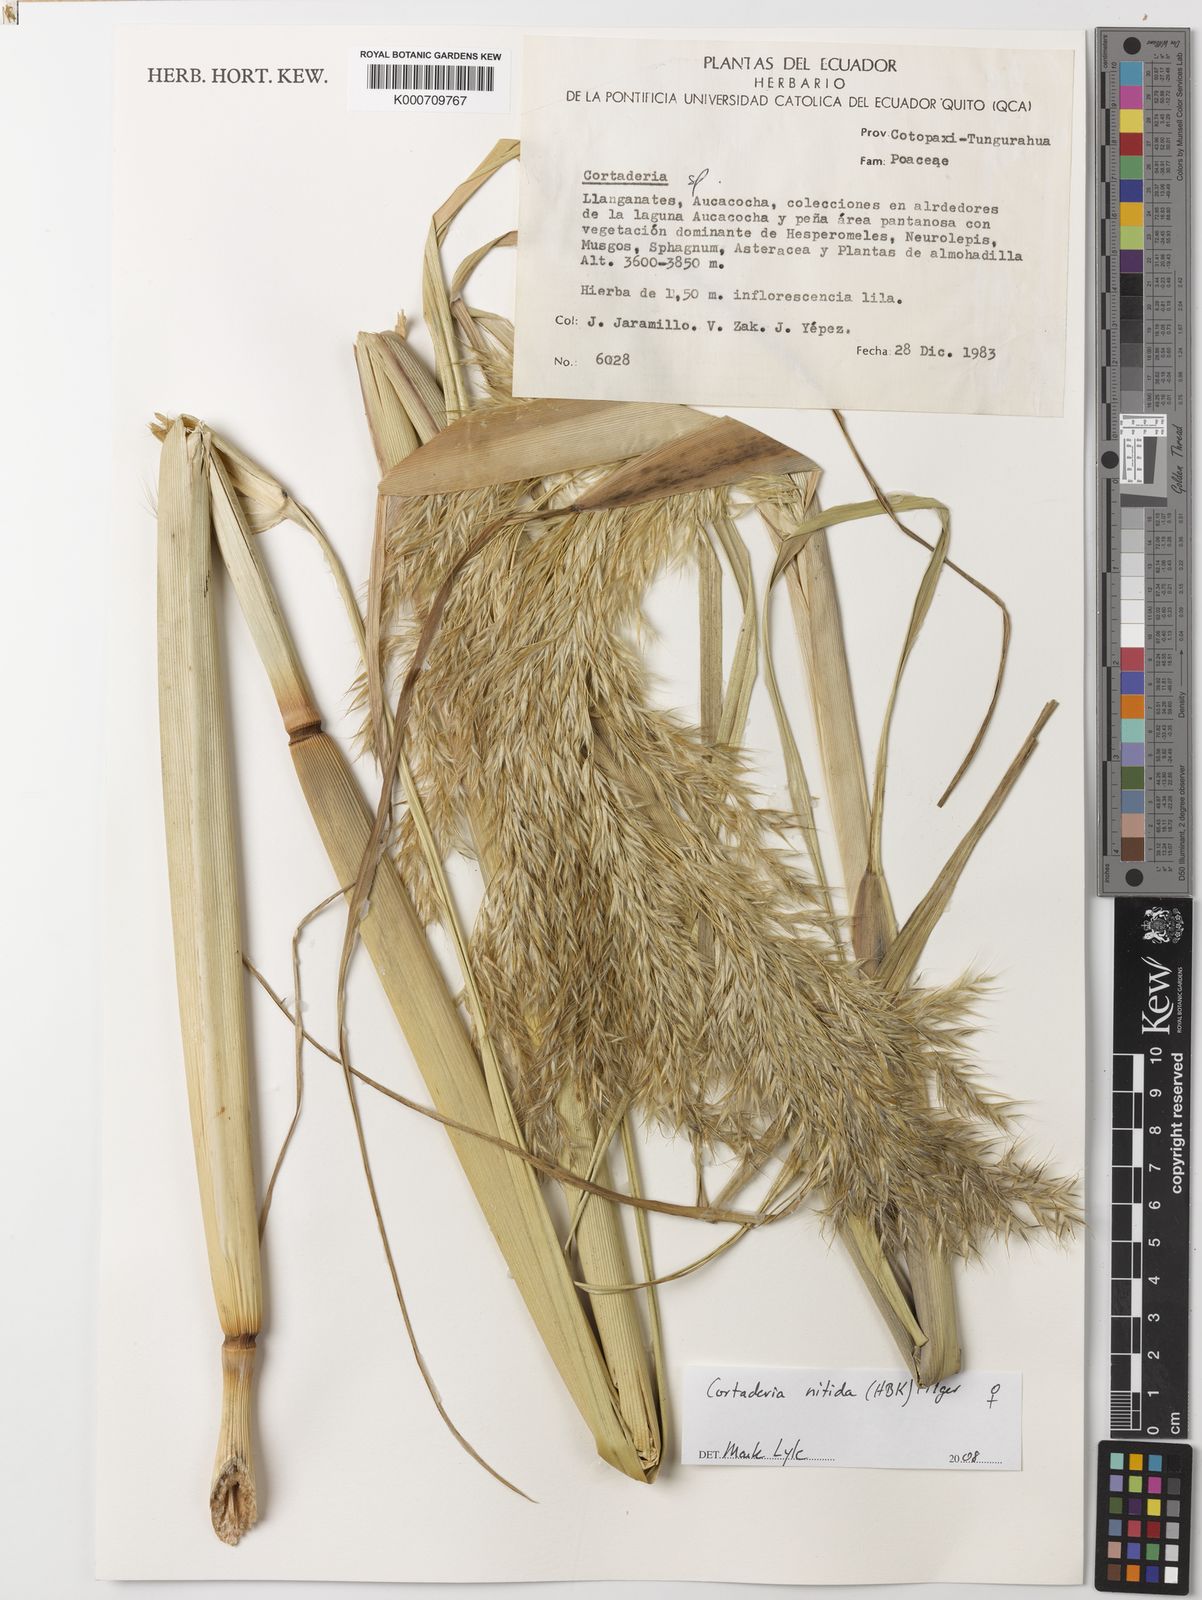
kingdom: Plantae
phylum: Tracheophyta
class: Liliopsida
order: Poales
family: Poaceae
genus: Cortaderia
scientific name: Cortaderia nitida
